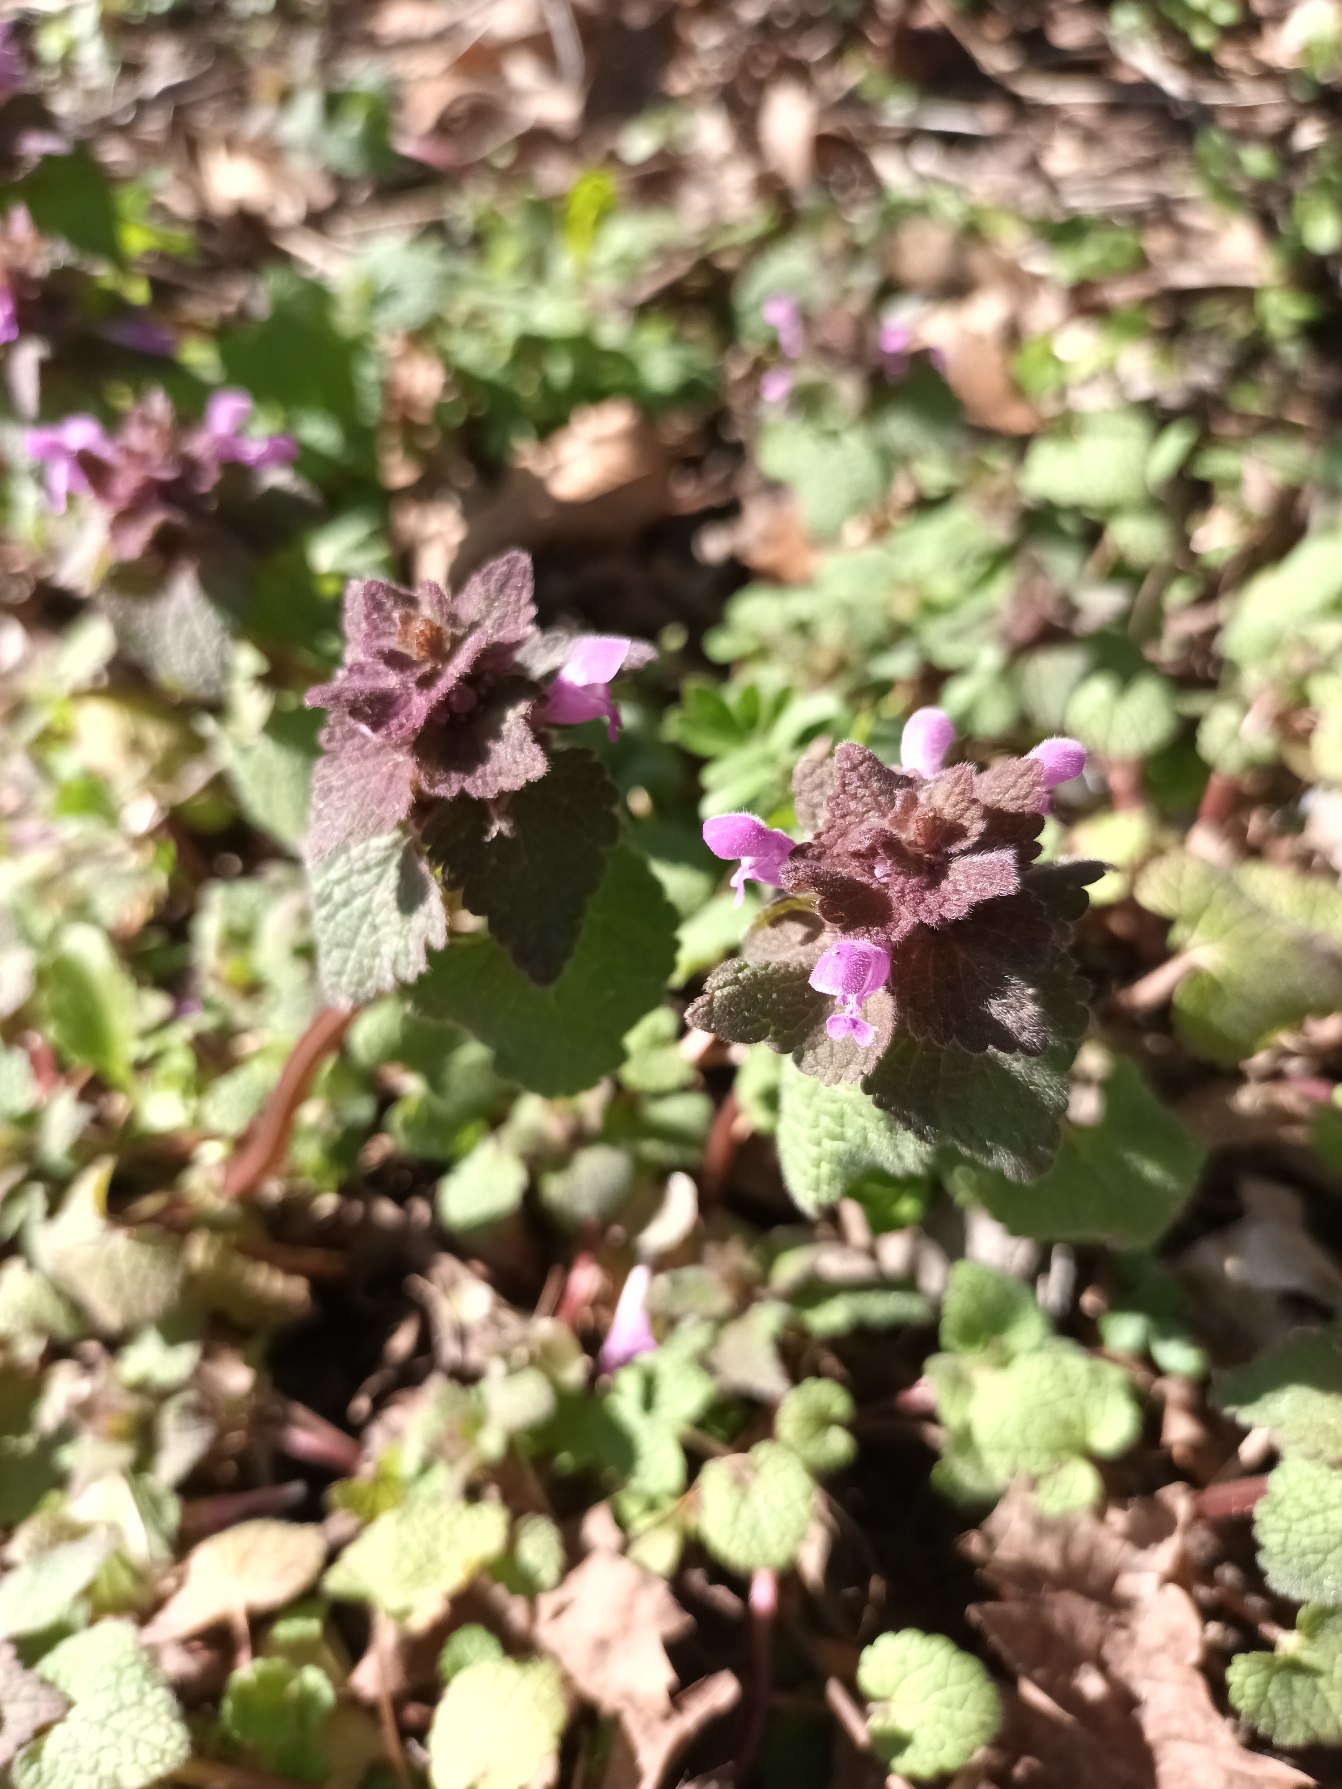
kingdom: Plantae
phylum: Tracheophyta
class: Magnoliopsida
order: Lamiales
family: Lamiaceae
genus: Lamium
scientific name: Lamium purpureum
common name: Rød tvetand
